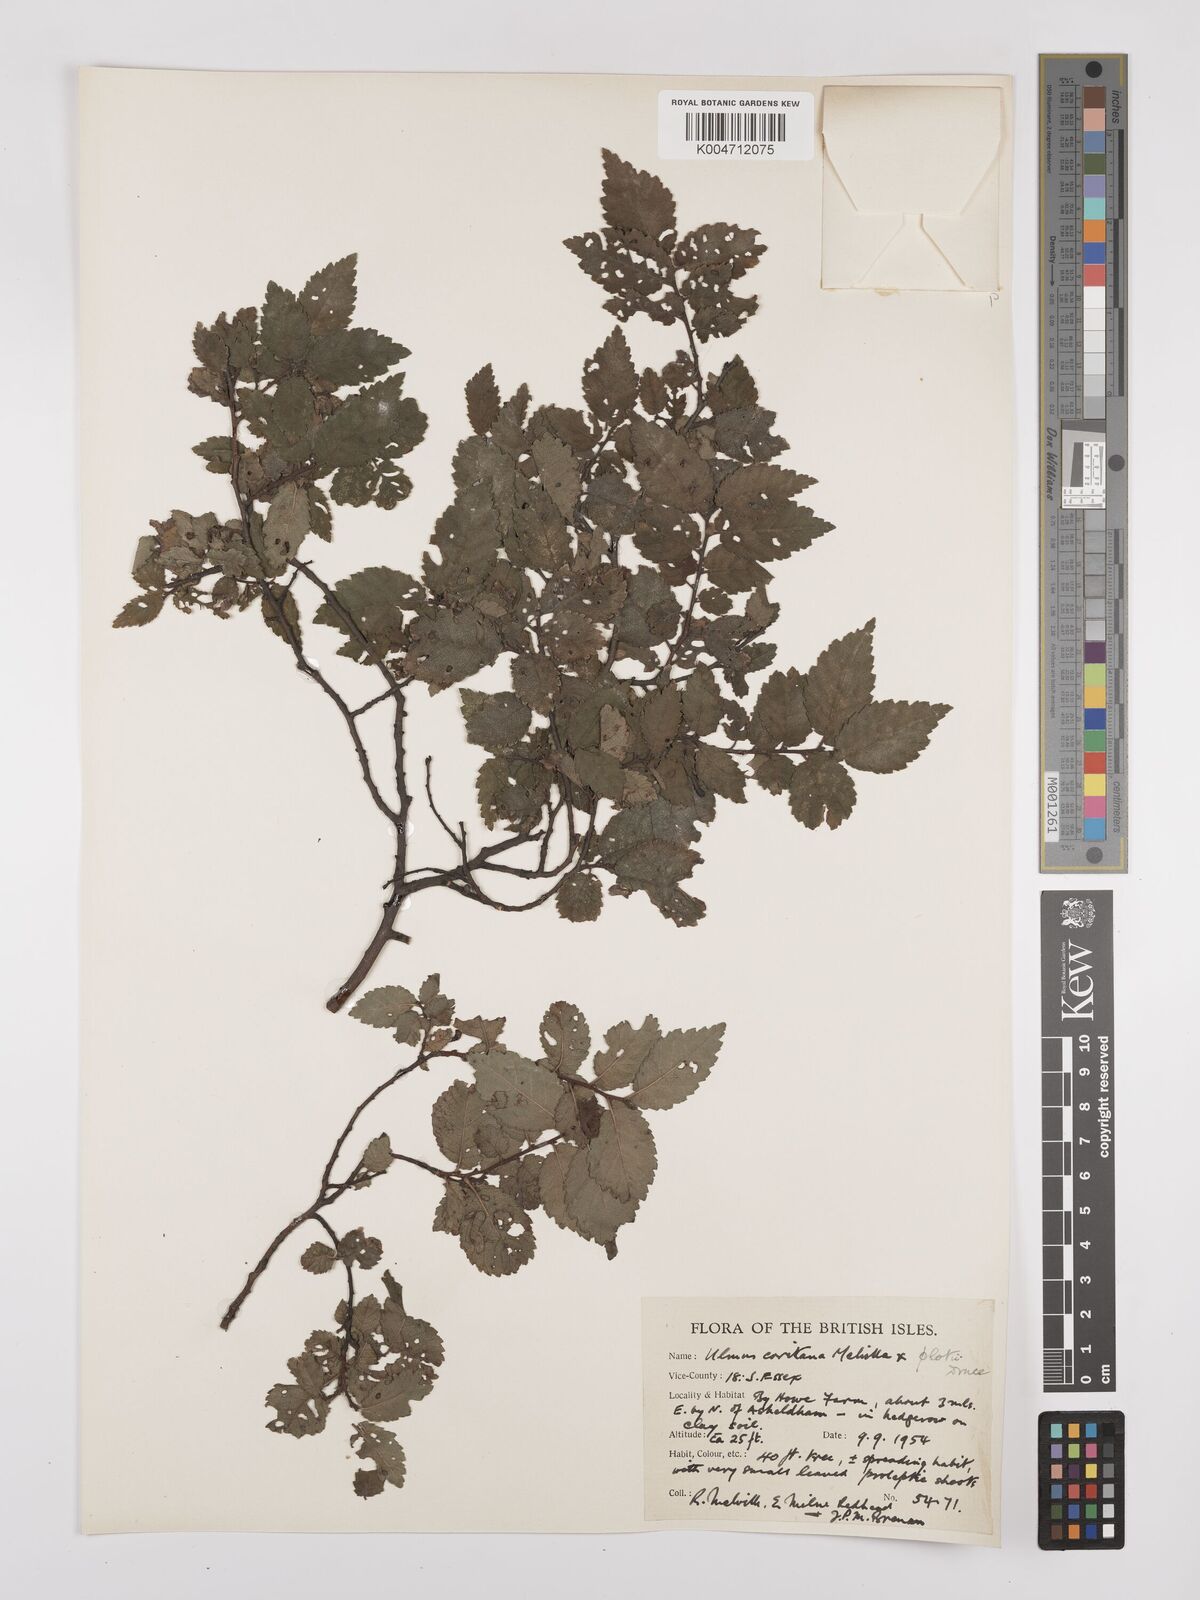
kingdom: Plantae
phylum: Tracheophyta
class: Magnoliopsida
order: Rosales
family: Ulmaceae
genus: Ulmus
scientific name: Ulmus minor
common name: Small-leaved elm
